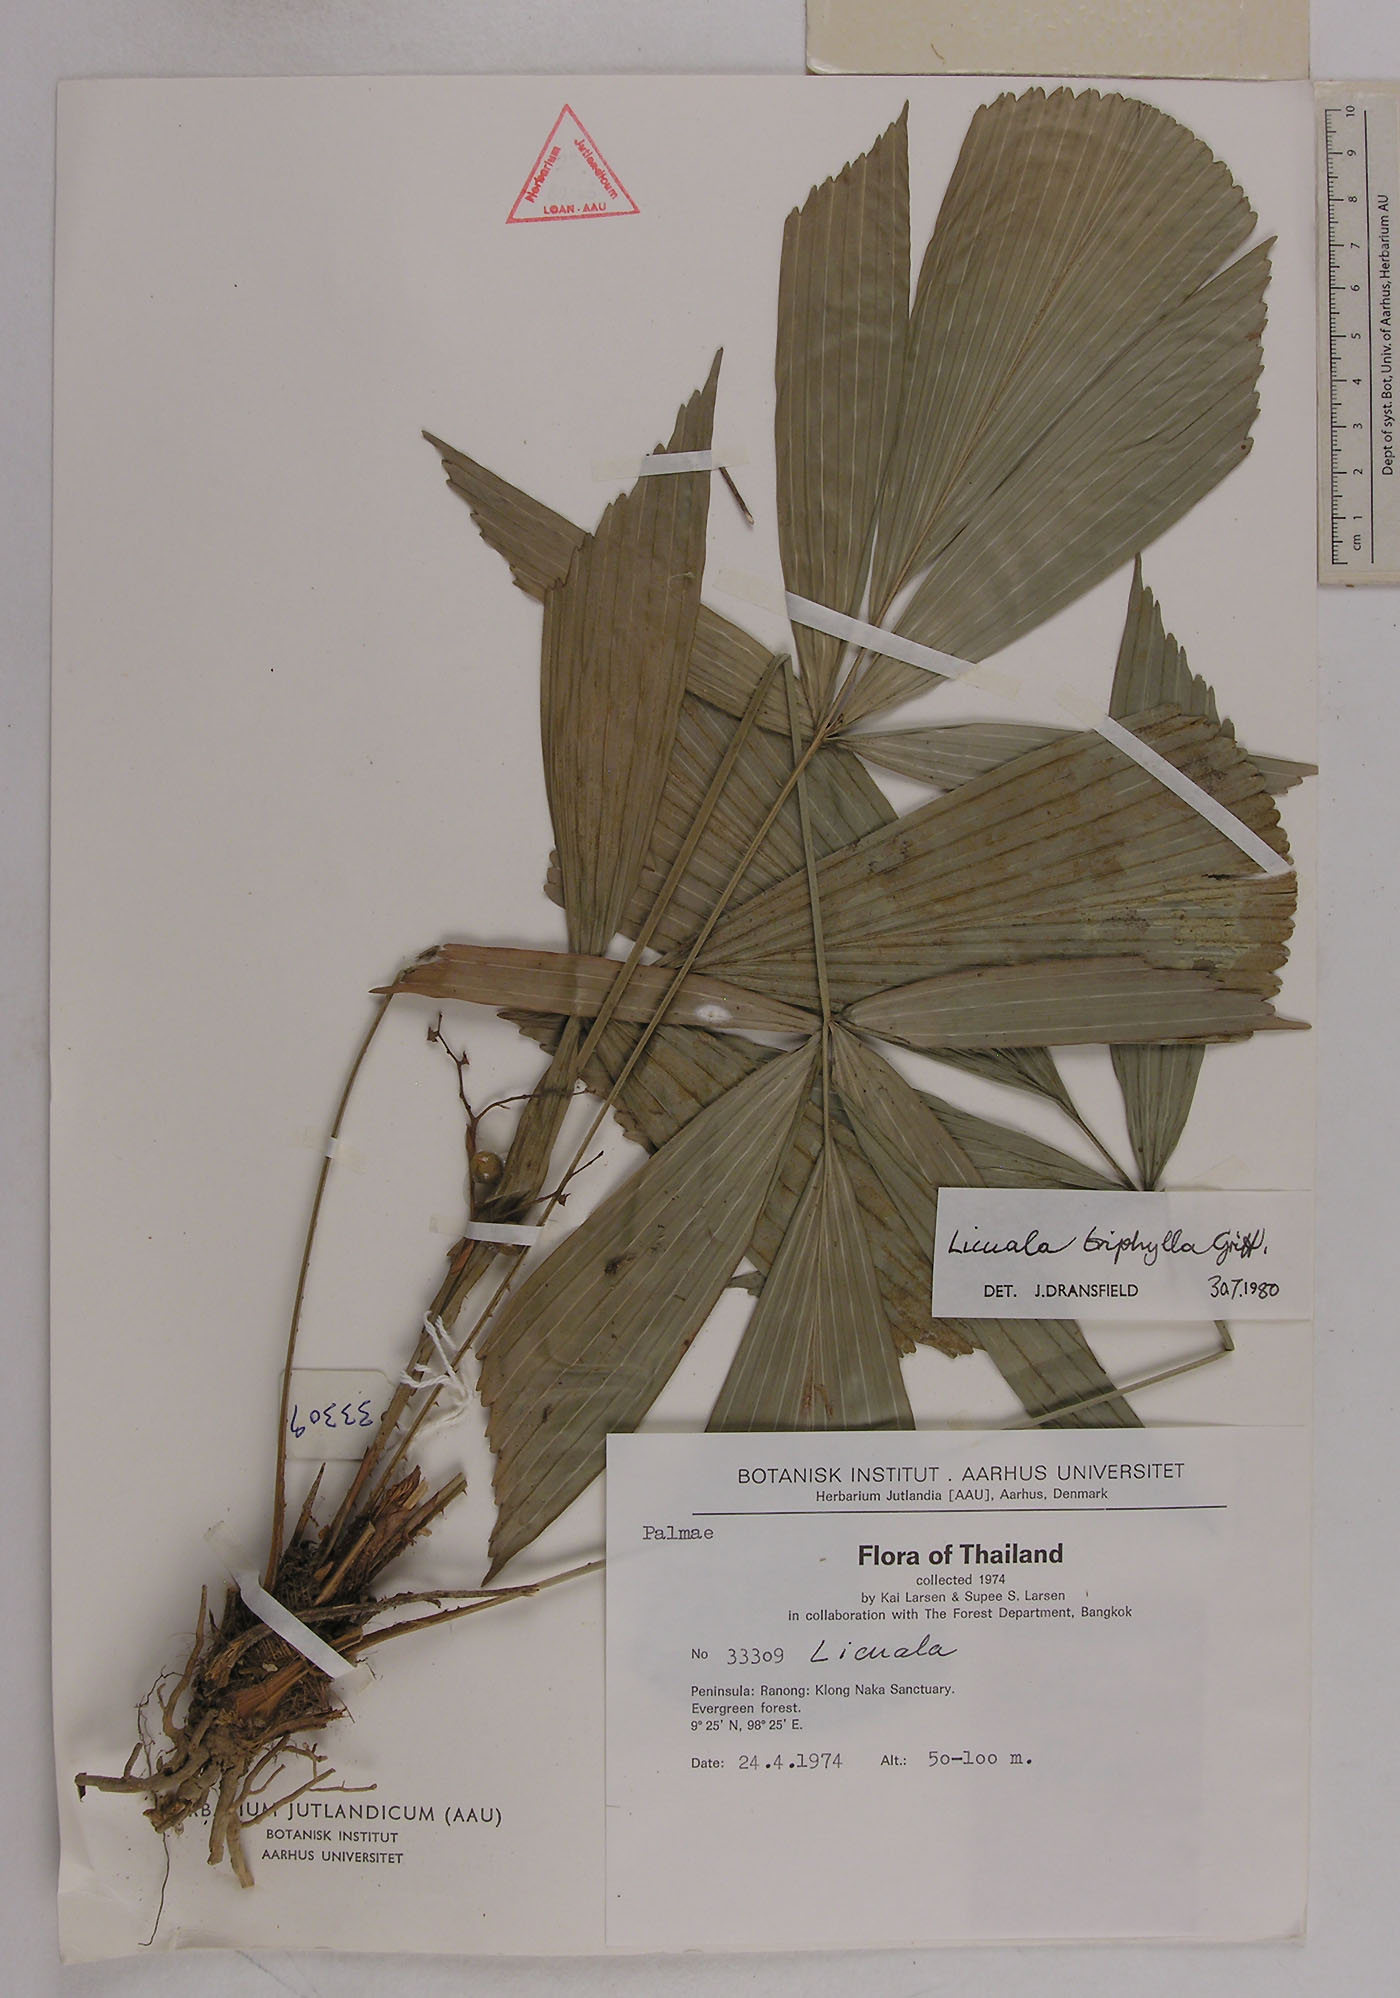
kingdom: Plantae
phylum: Tracheophyta
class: Liliopsida
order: Arecales
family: Arecaceae
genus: Licuala
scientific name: Licuala triphylla
